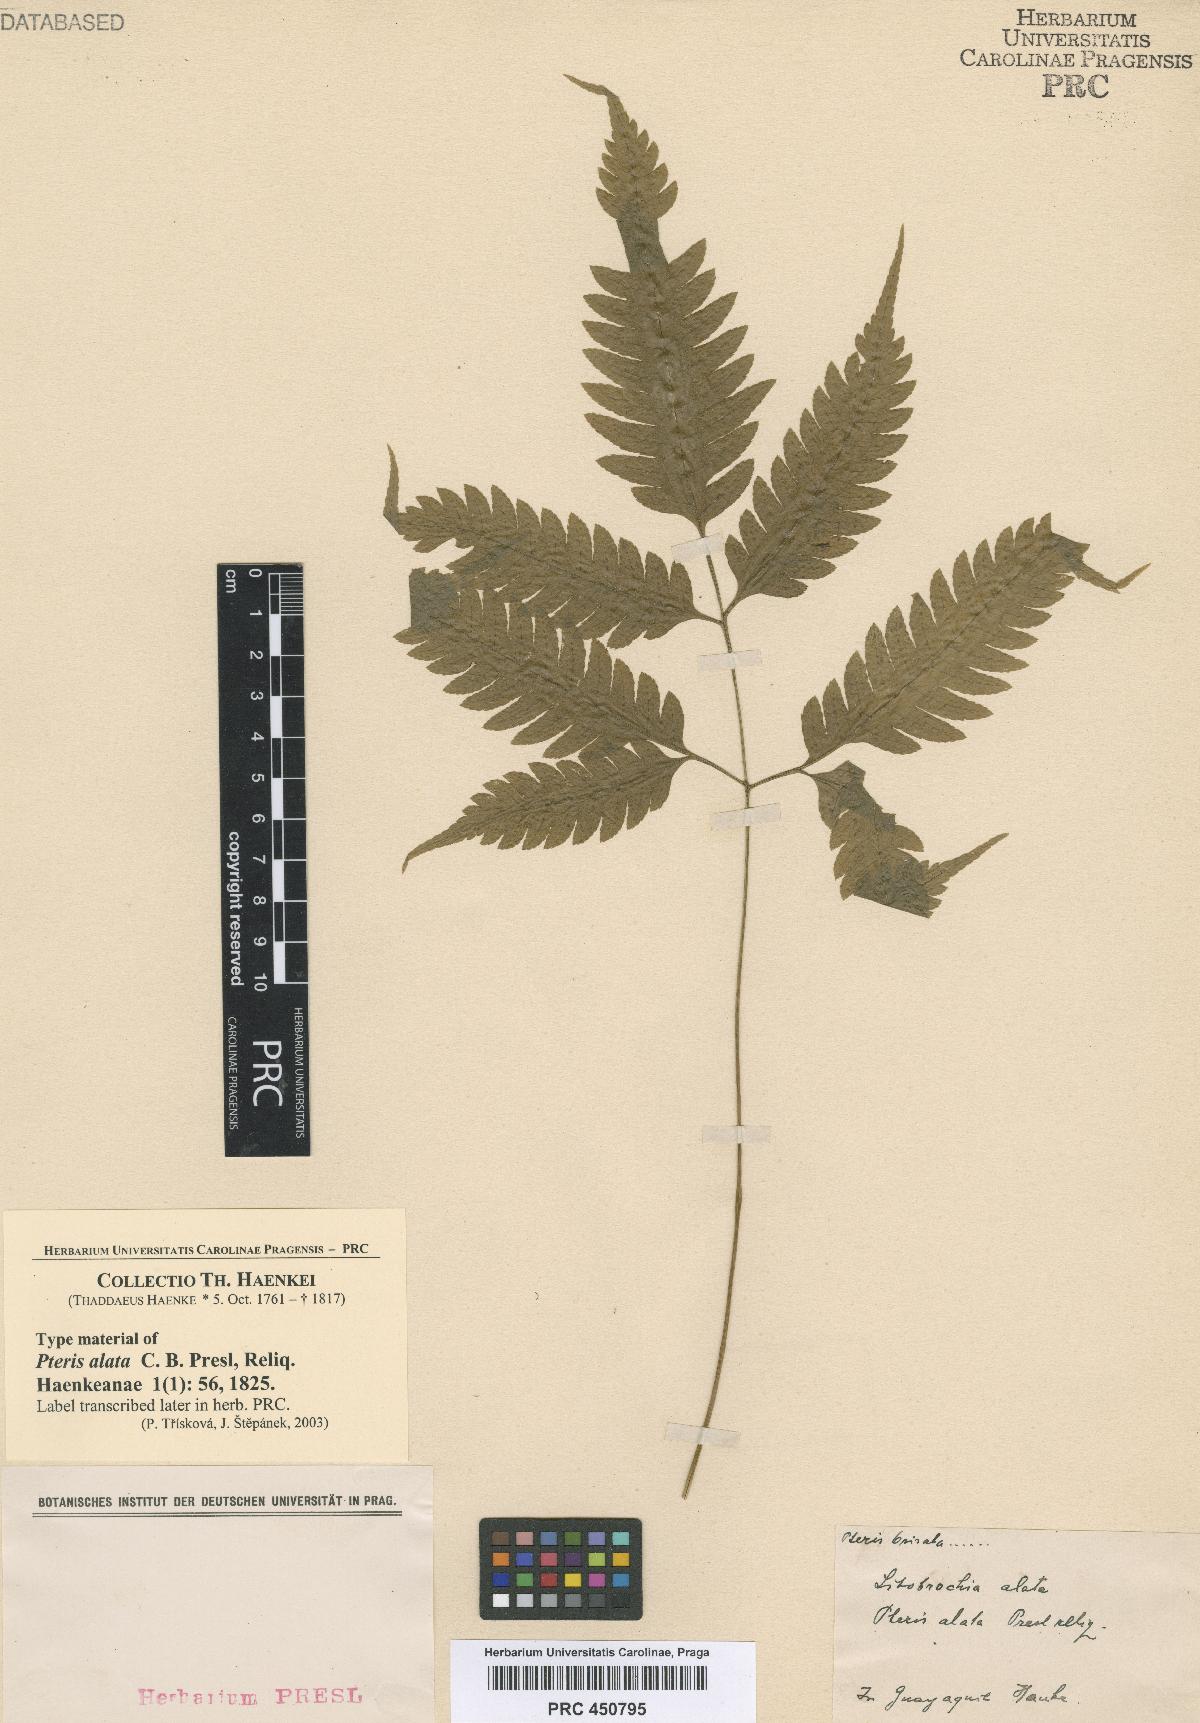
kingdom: Plantae
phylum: Tracheophyta
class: Polypodiopsida
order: Polypodiales
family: Pteridaceae
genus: Pteris
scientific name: Pteris Litobrochia alata
